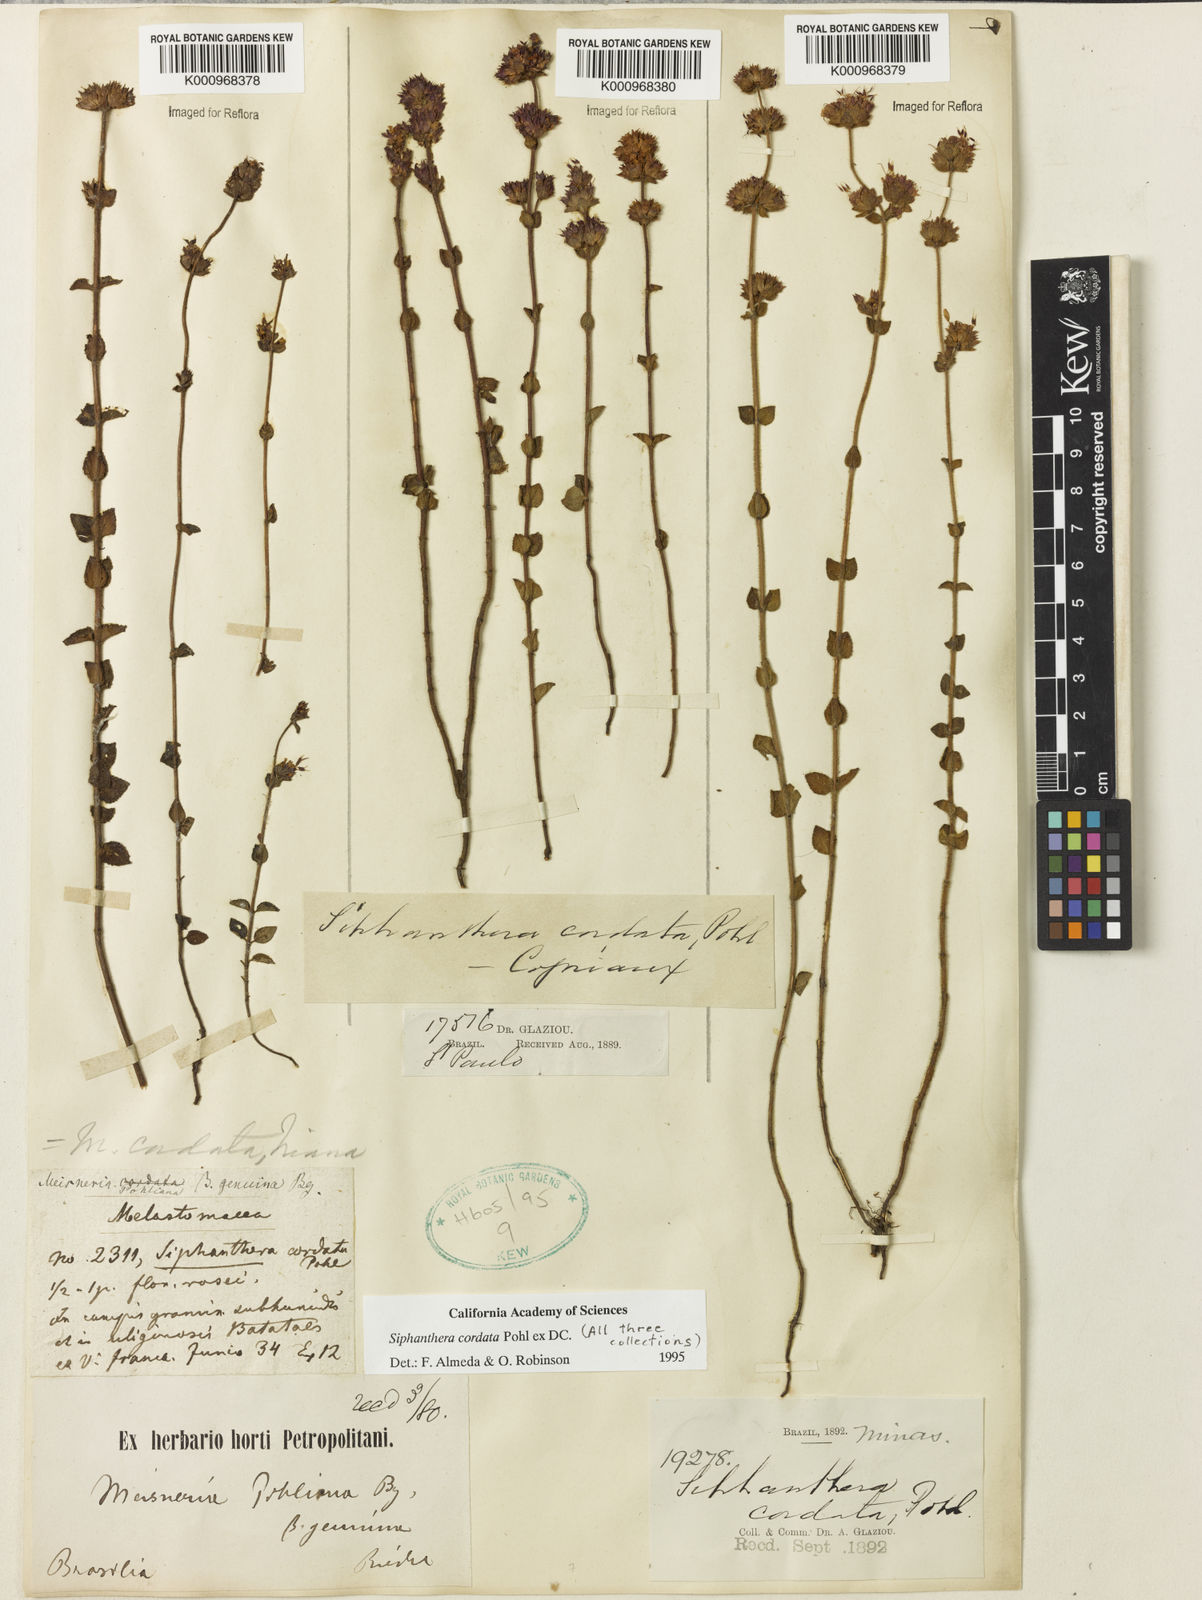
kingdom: Plantae
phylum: Tracheophyta
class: Magnoliopsida
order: Myrtales
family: Melastomataceae
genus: Siphanthera
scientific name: Siphanthera
